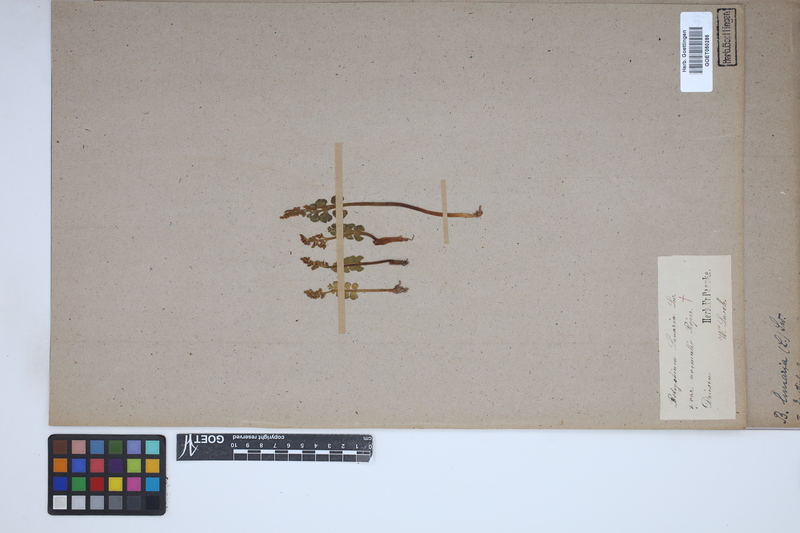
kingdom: Plantae
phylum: Tracheophyta
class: Polypodiopsida
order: Ophioglossales
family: Ophioglossaceae
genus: Botrychium
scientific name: Botrychium lunaria
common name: Moonwort
